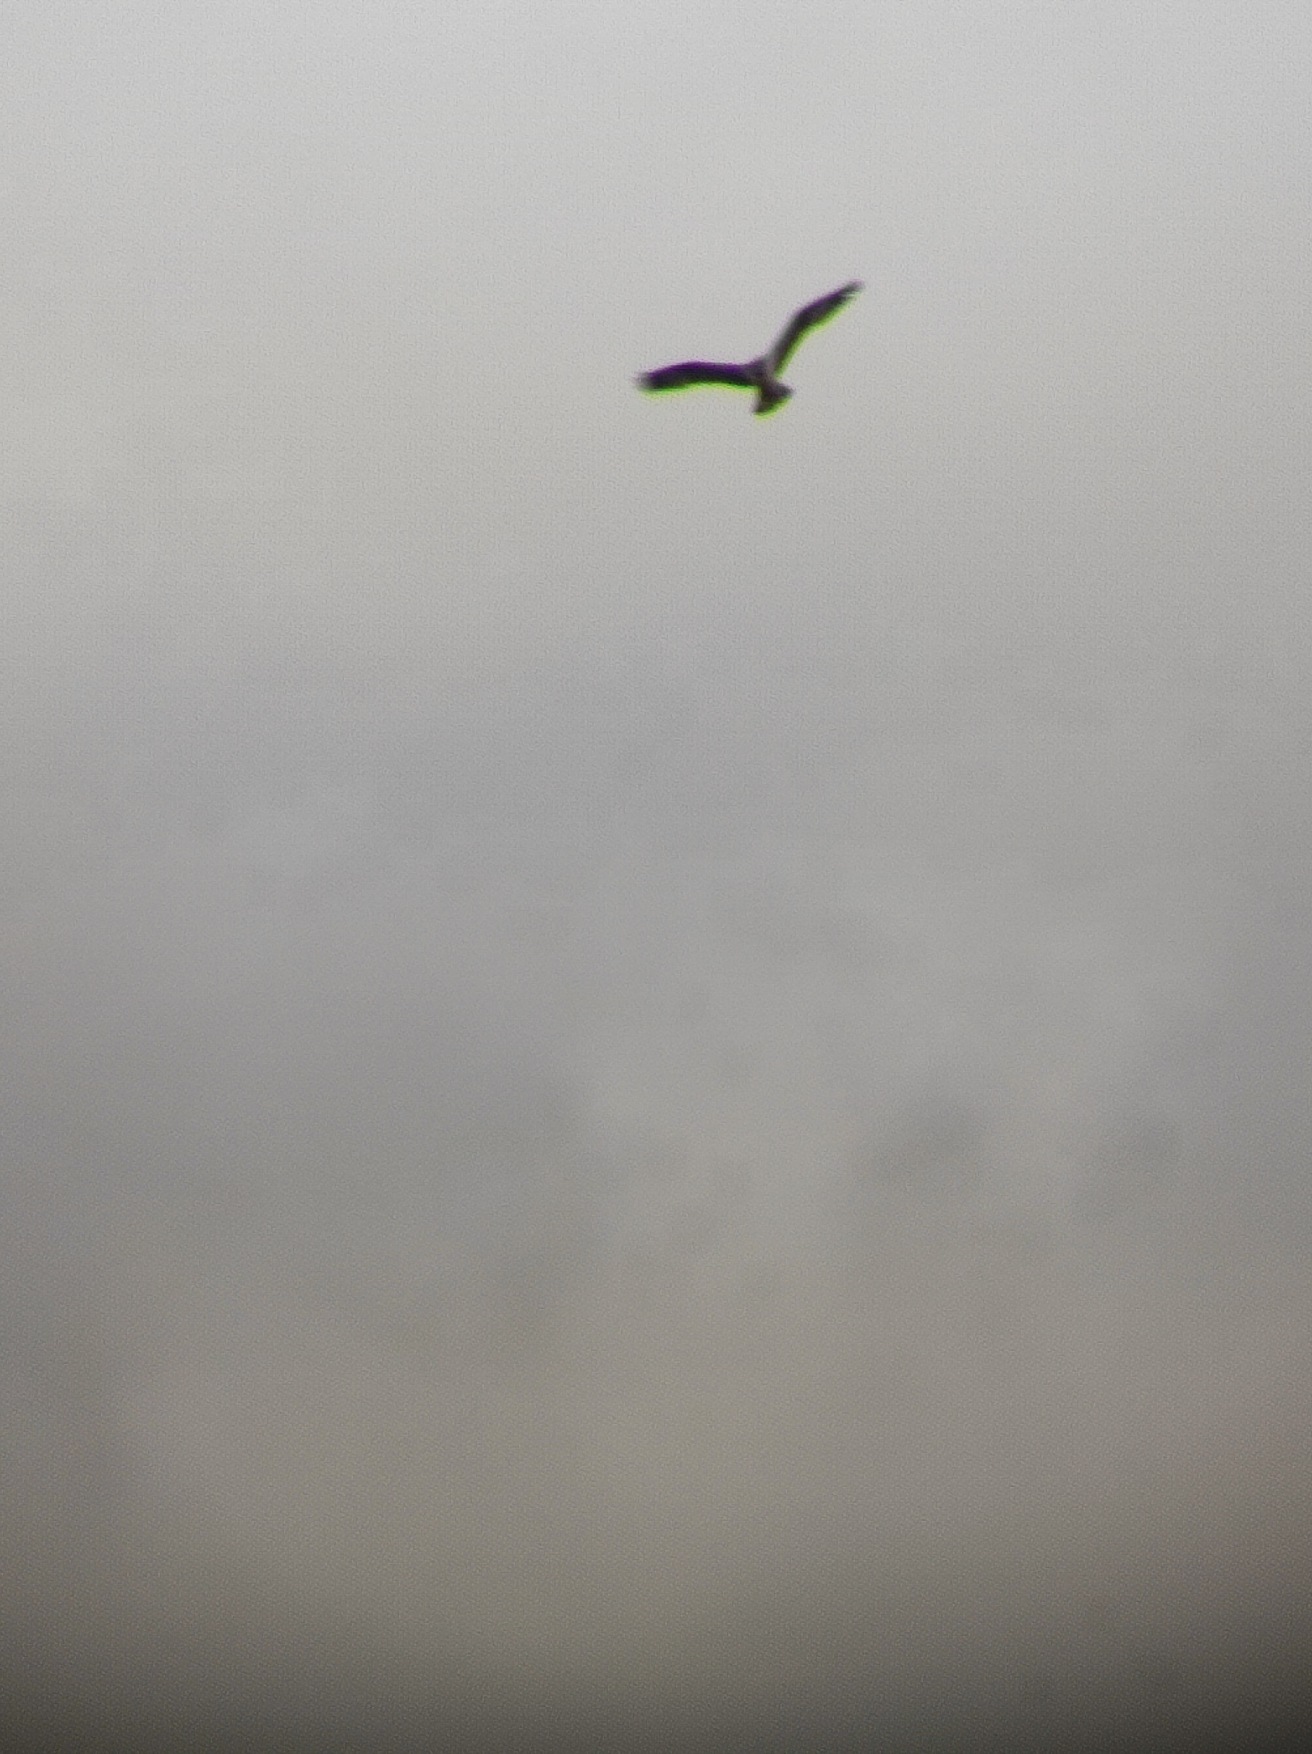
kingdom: Animalia
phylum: Chordata
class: Aves
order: Accipitriformes
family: Pandionidae
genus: Pandion
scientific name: Pandion haliaetus
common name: Fiskeørn
